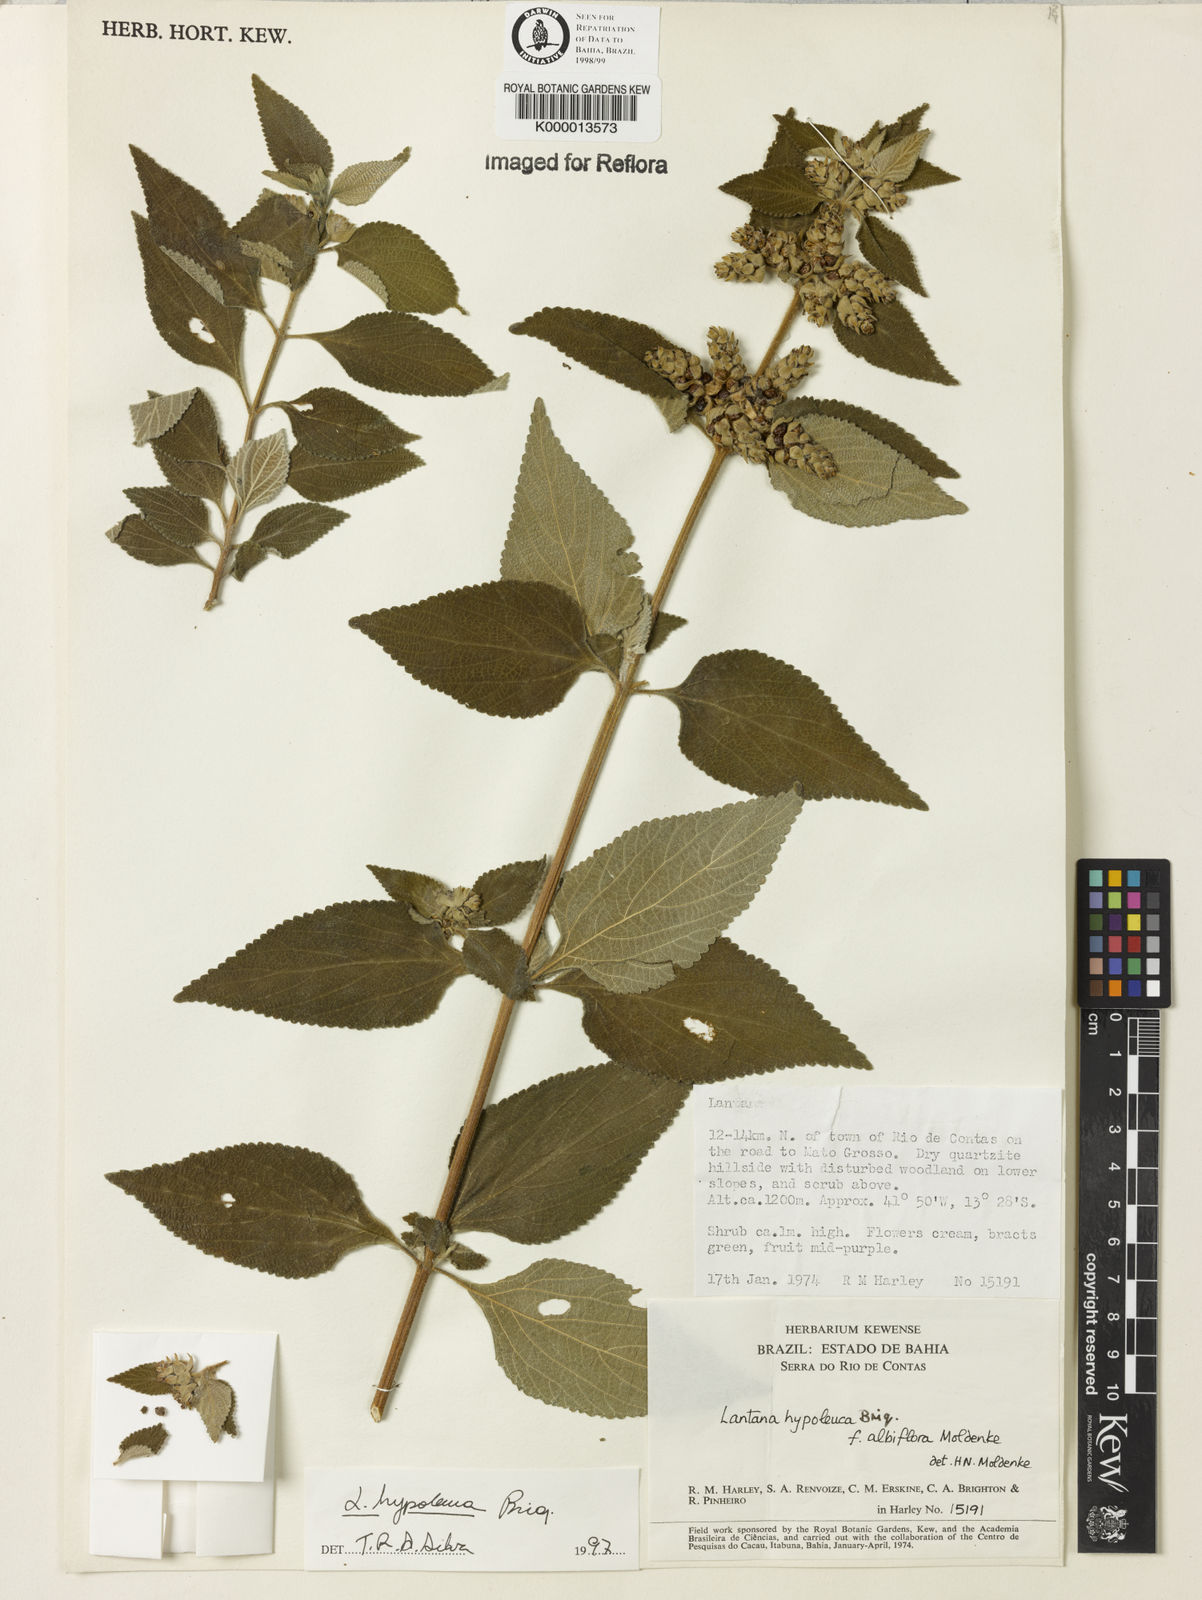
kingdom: Plantae
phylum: Tracheophyta
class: Magnoliopsida
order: Lamiales
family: Verbenaceae
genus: Lantana
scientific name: Lantana hypoleuca
